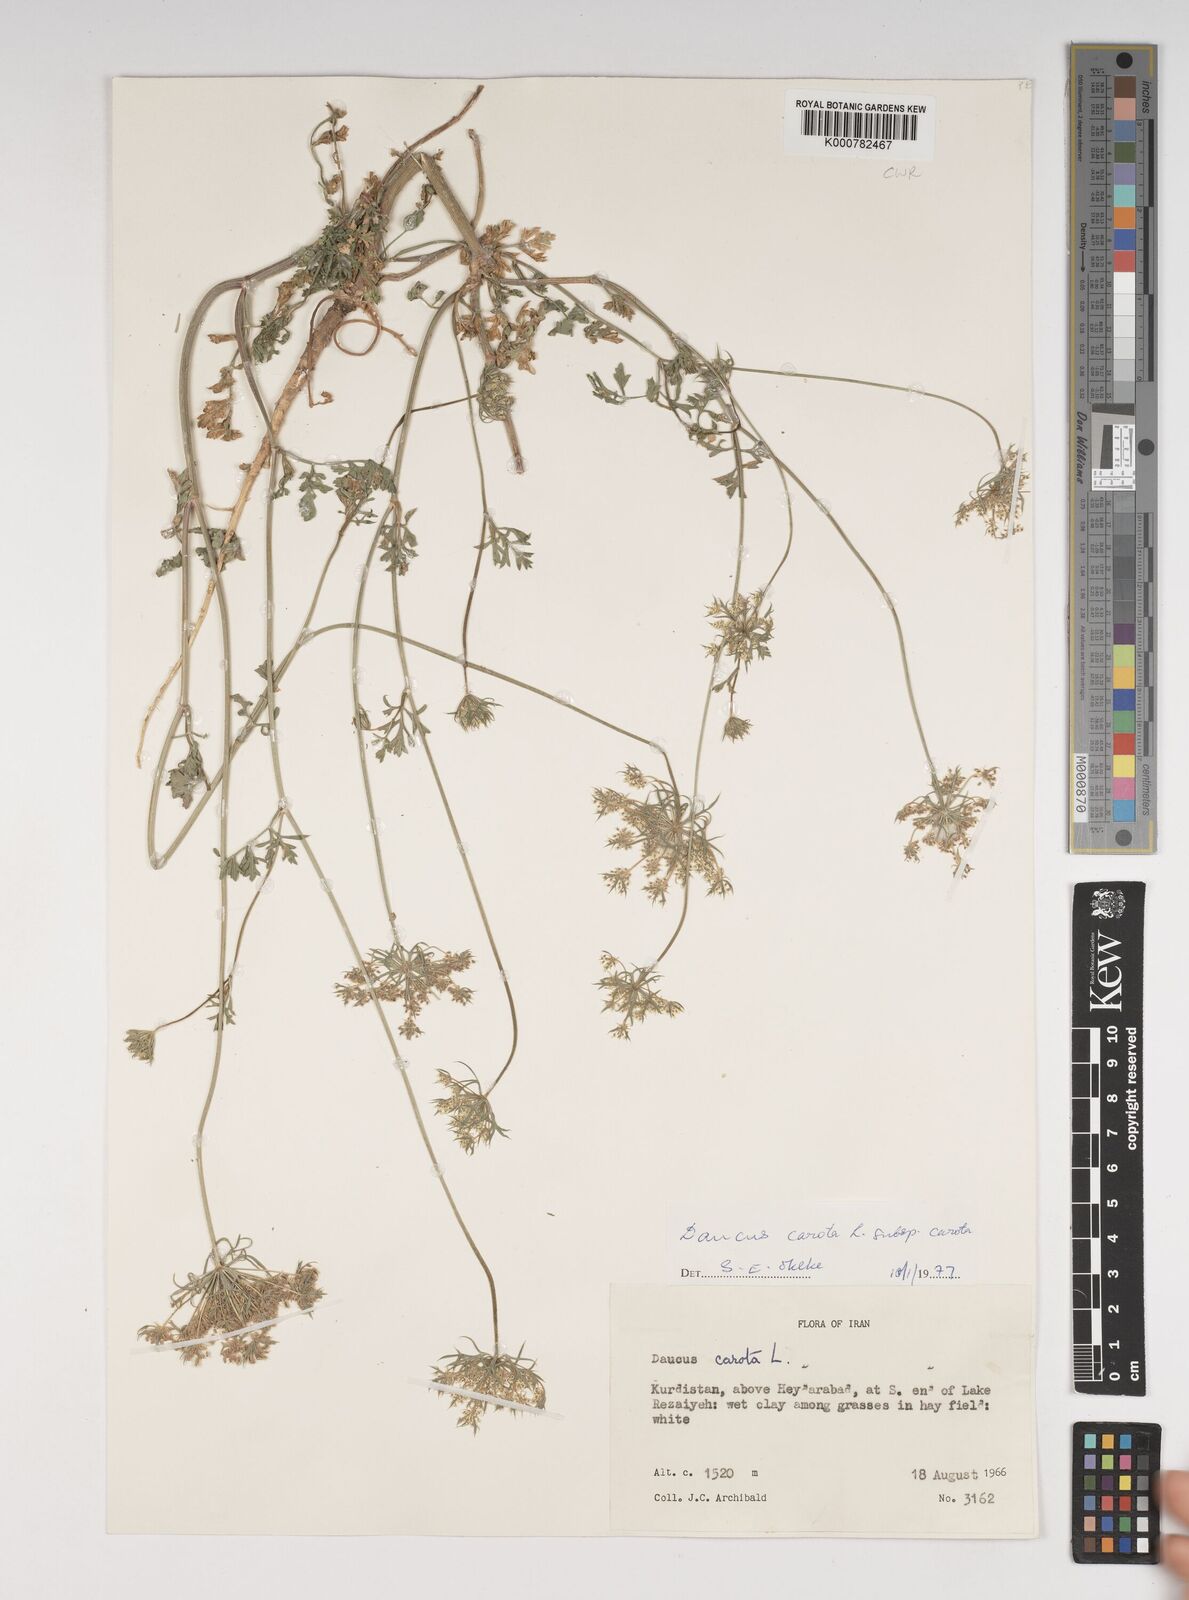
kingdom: Plantae
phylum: Tracheophyta
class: Magnoliopsida
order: Apiales
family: Apiaceae
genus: Daucus
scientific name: Daucus carota
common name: Wild carrot
